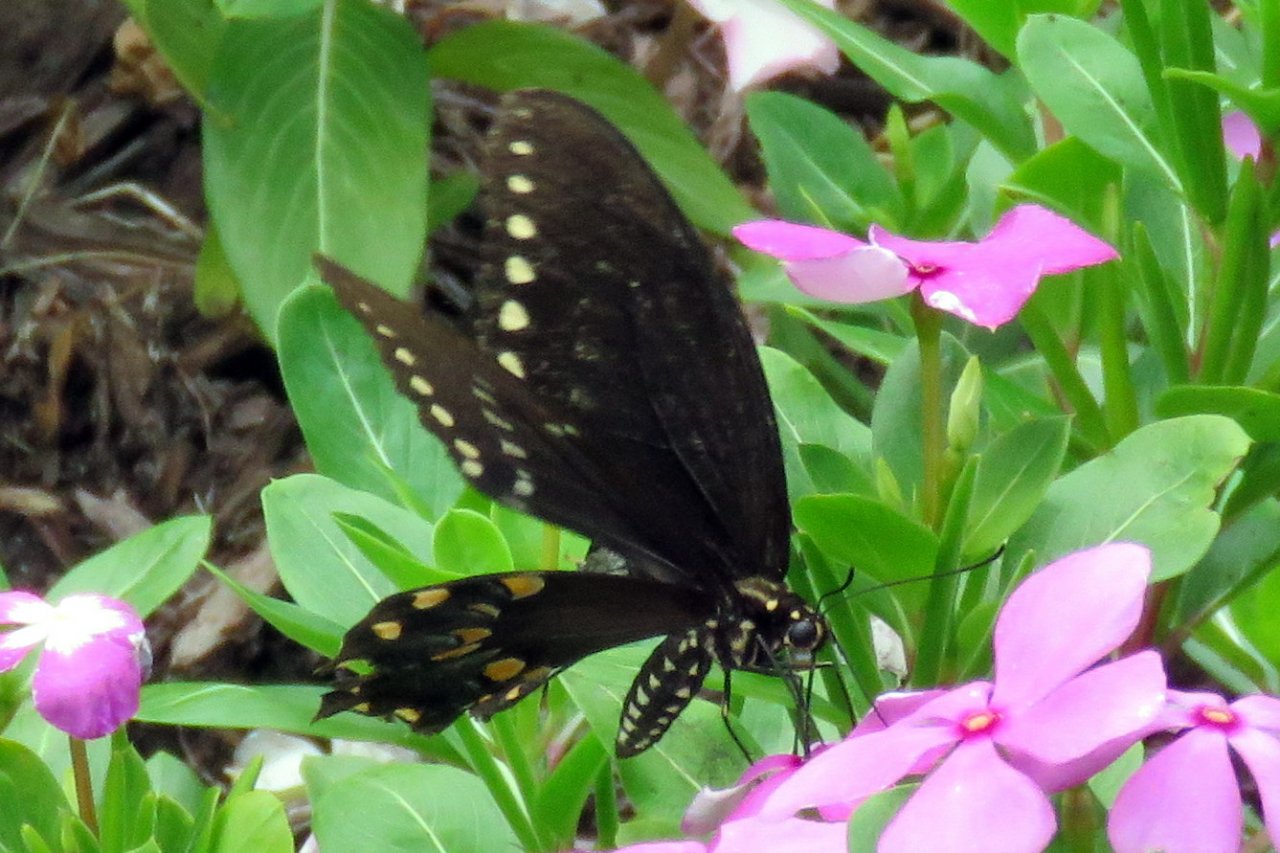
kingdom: Animalia
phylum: Arthropoda
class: Insecta
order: Lepidoptera
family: Papilionidae
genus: Pterourus
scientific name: Pterourus troilus
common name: Spicebush Swallowtail
